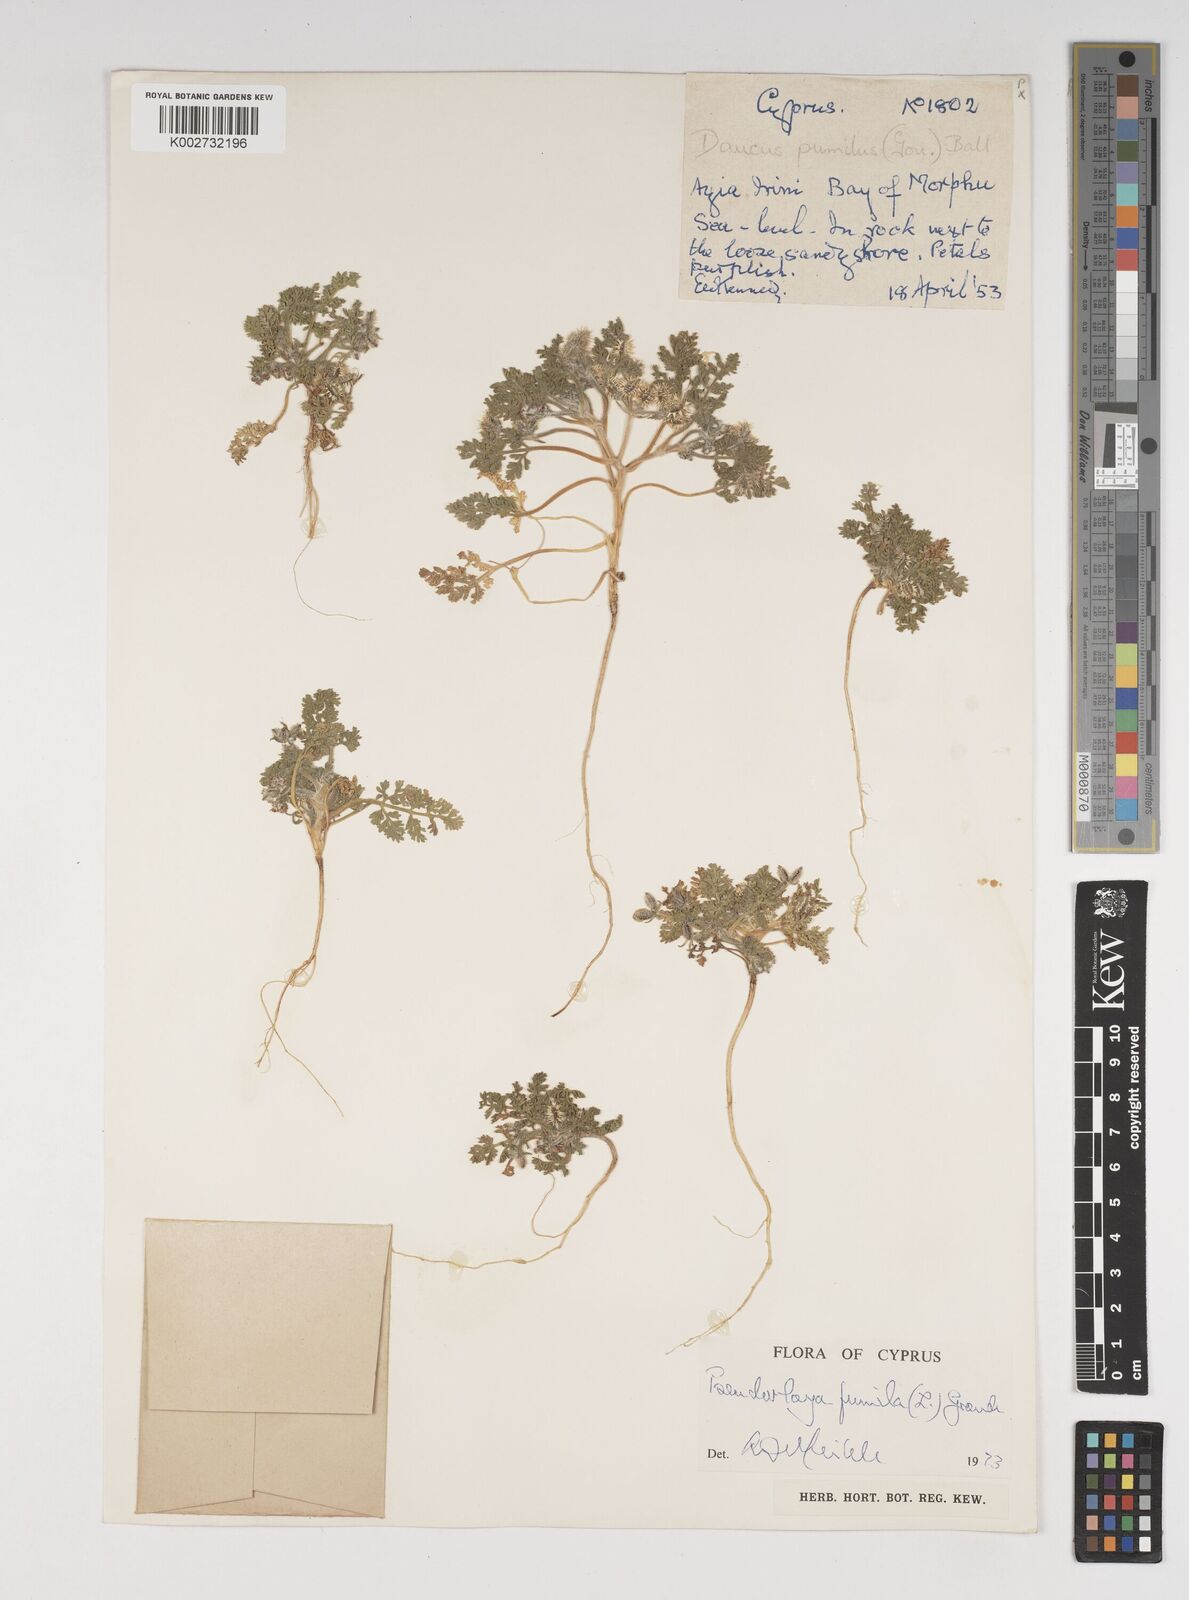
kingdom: Plantae
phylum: Tracheophyta
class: Magnoliopsida
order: Apiales
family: Apiaceae
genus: Daucus
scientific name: Daucus pumilus
